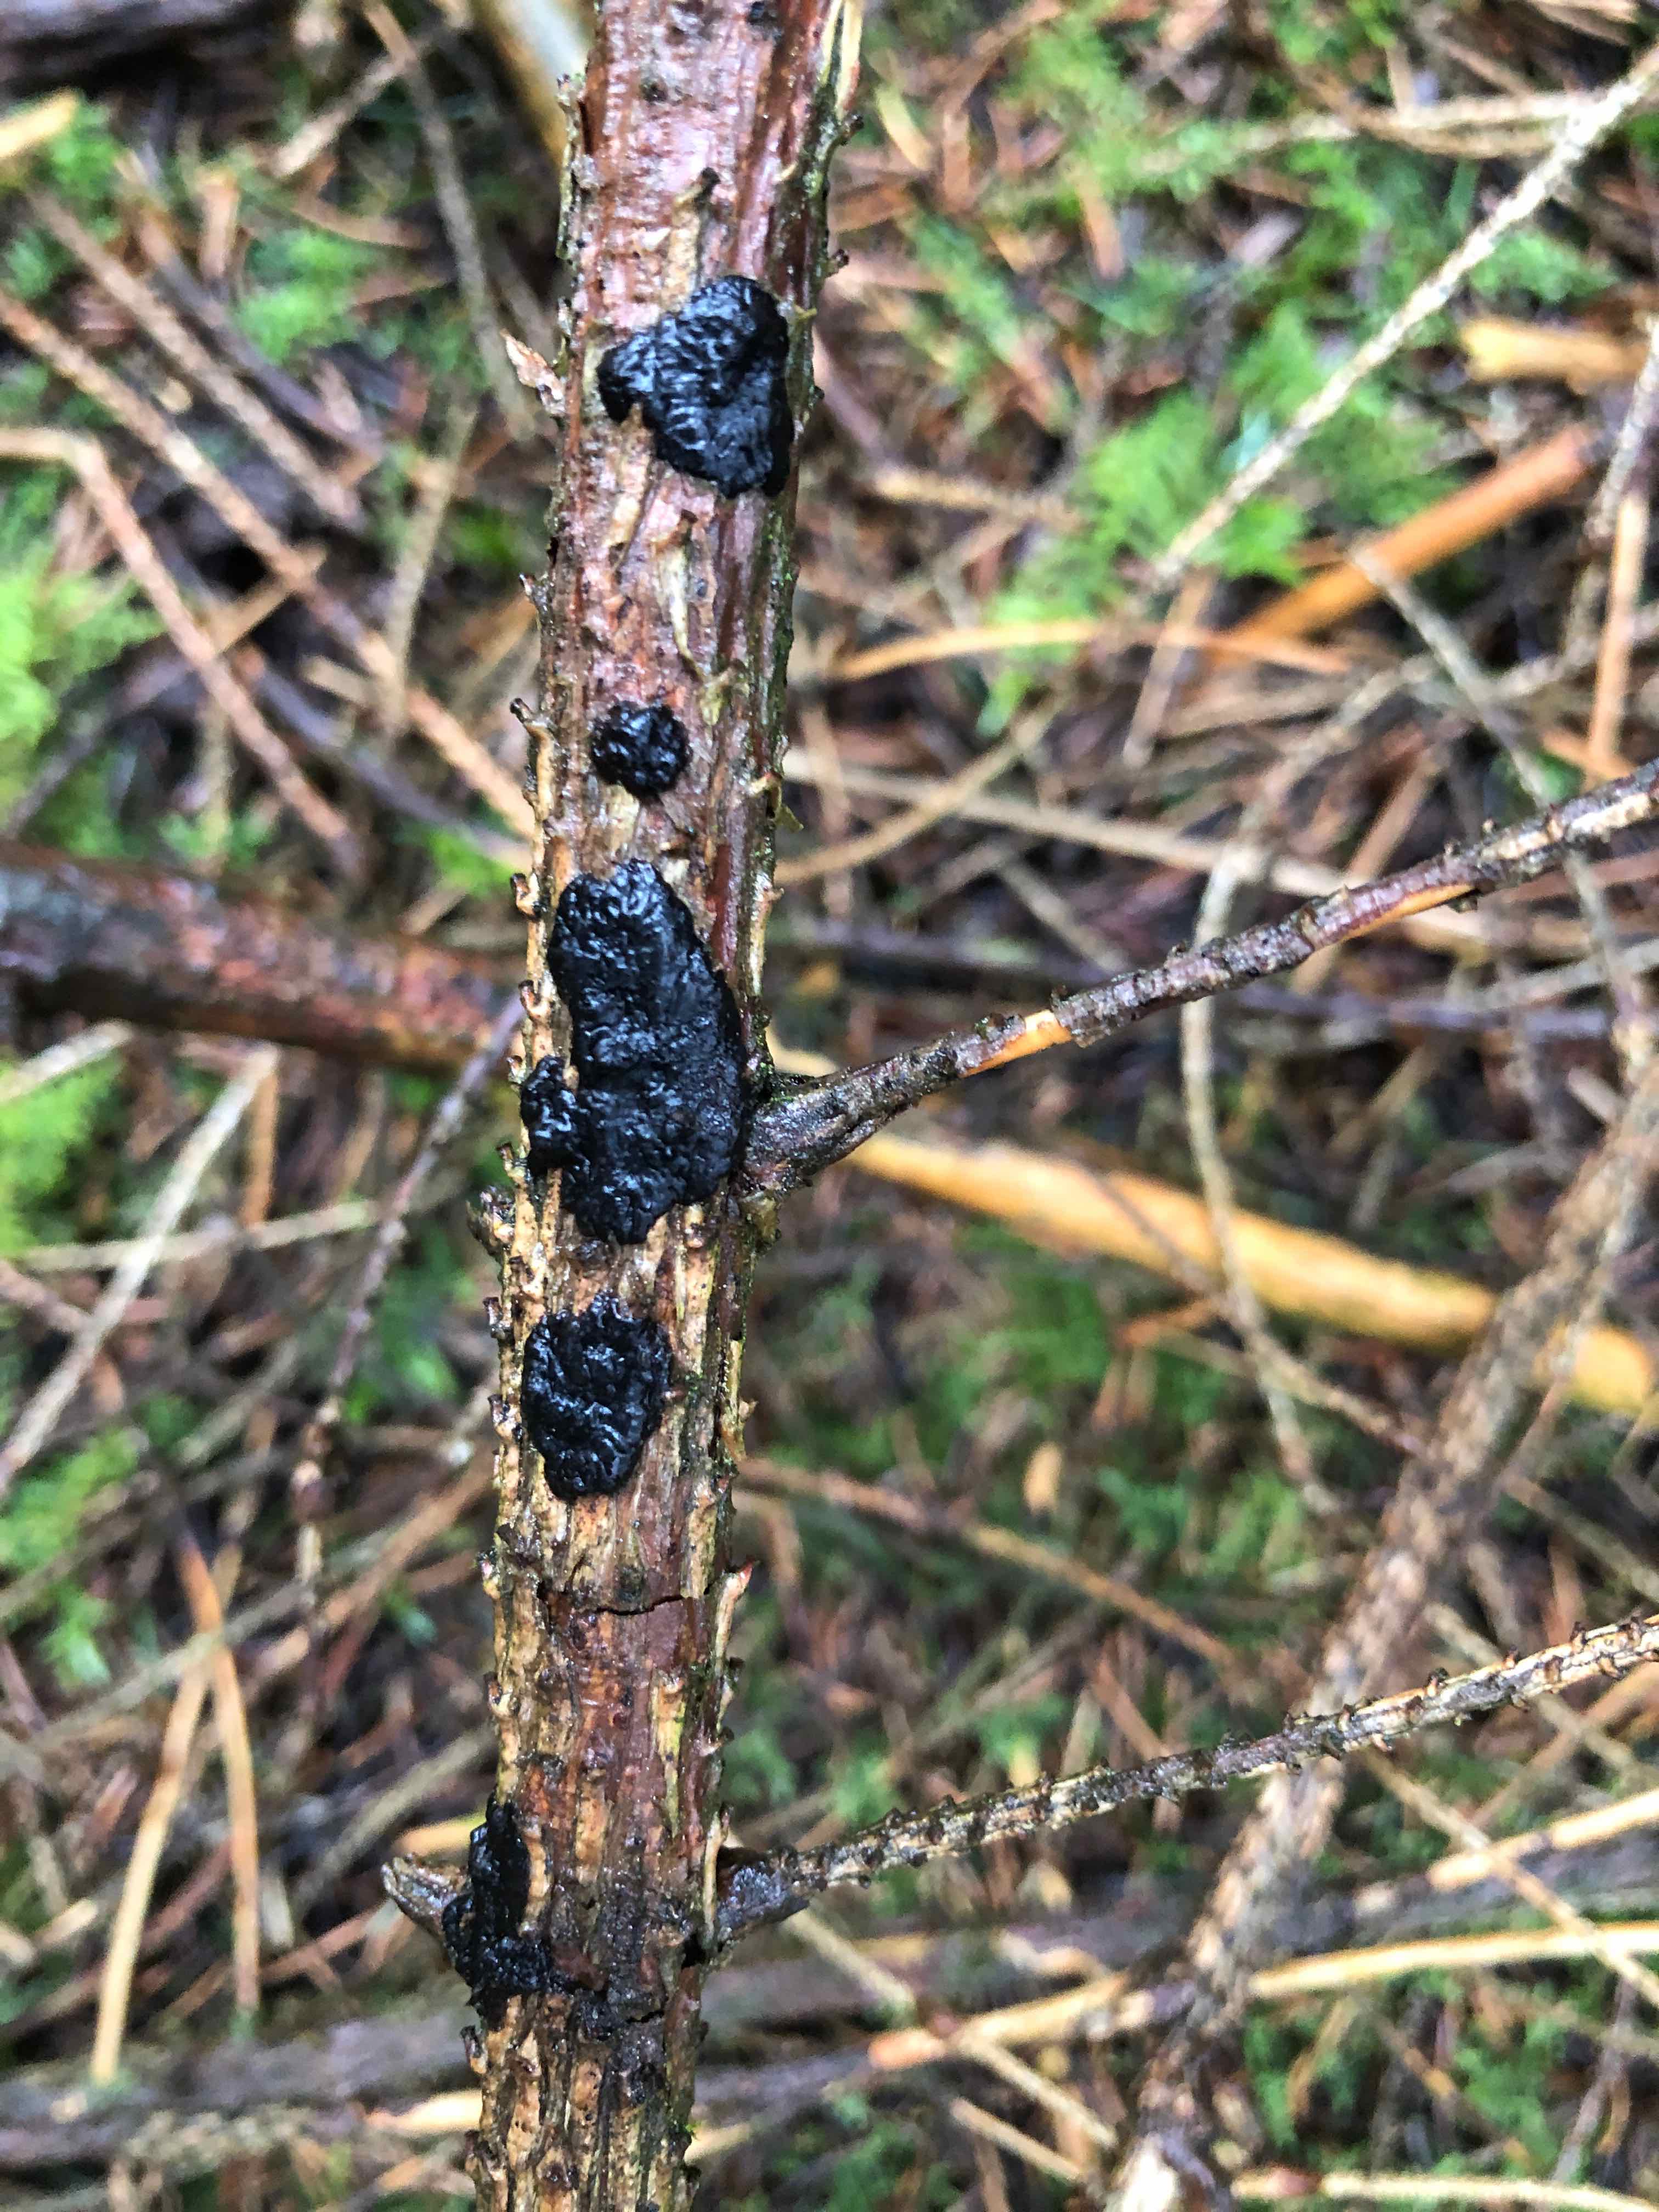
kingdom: Fungi
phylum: Basidiomycota
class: Agaricomycetes
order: Auriculariales
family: Auriculariaceae
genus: Exidia
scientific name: Exidia pithya
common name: gran-bævretop
